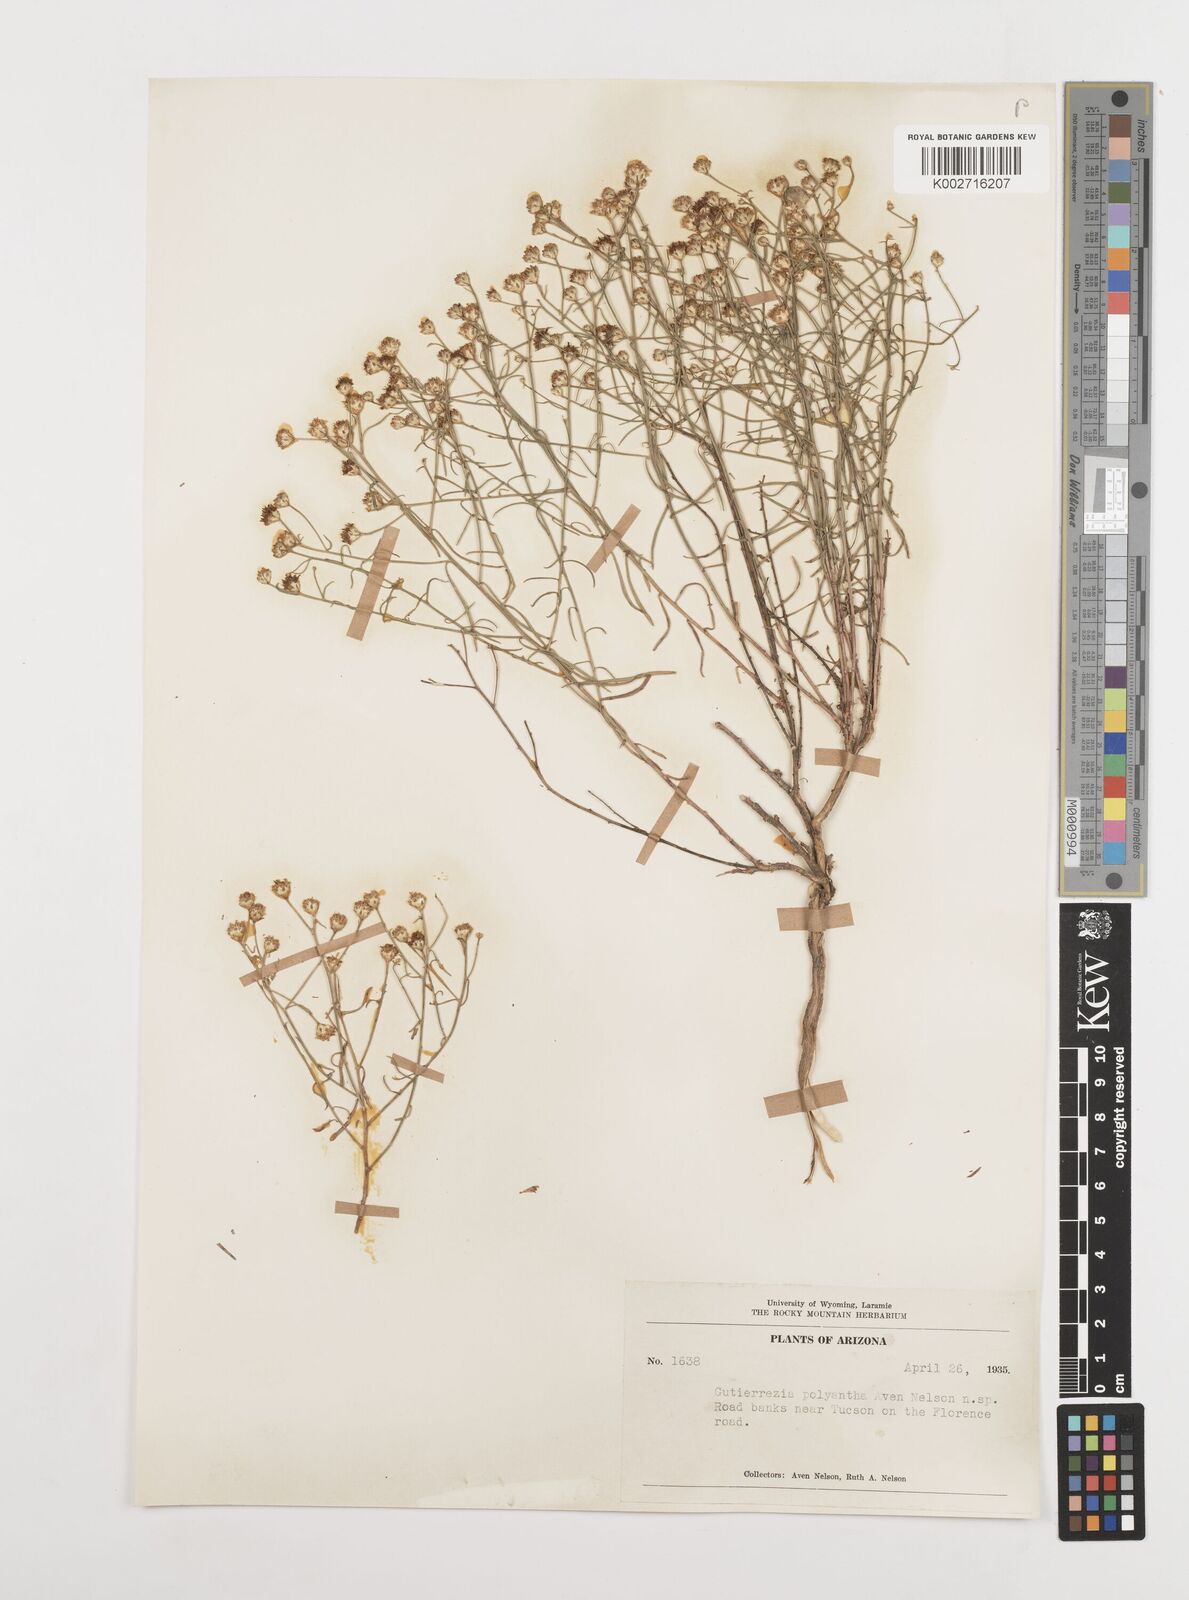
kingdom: Plantae
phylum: Tracheophyta
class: Magnoliopsida
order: Asterales
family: Asteraceae
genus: Gutierrezia
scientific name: Gutierrezia serotina
